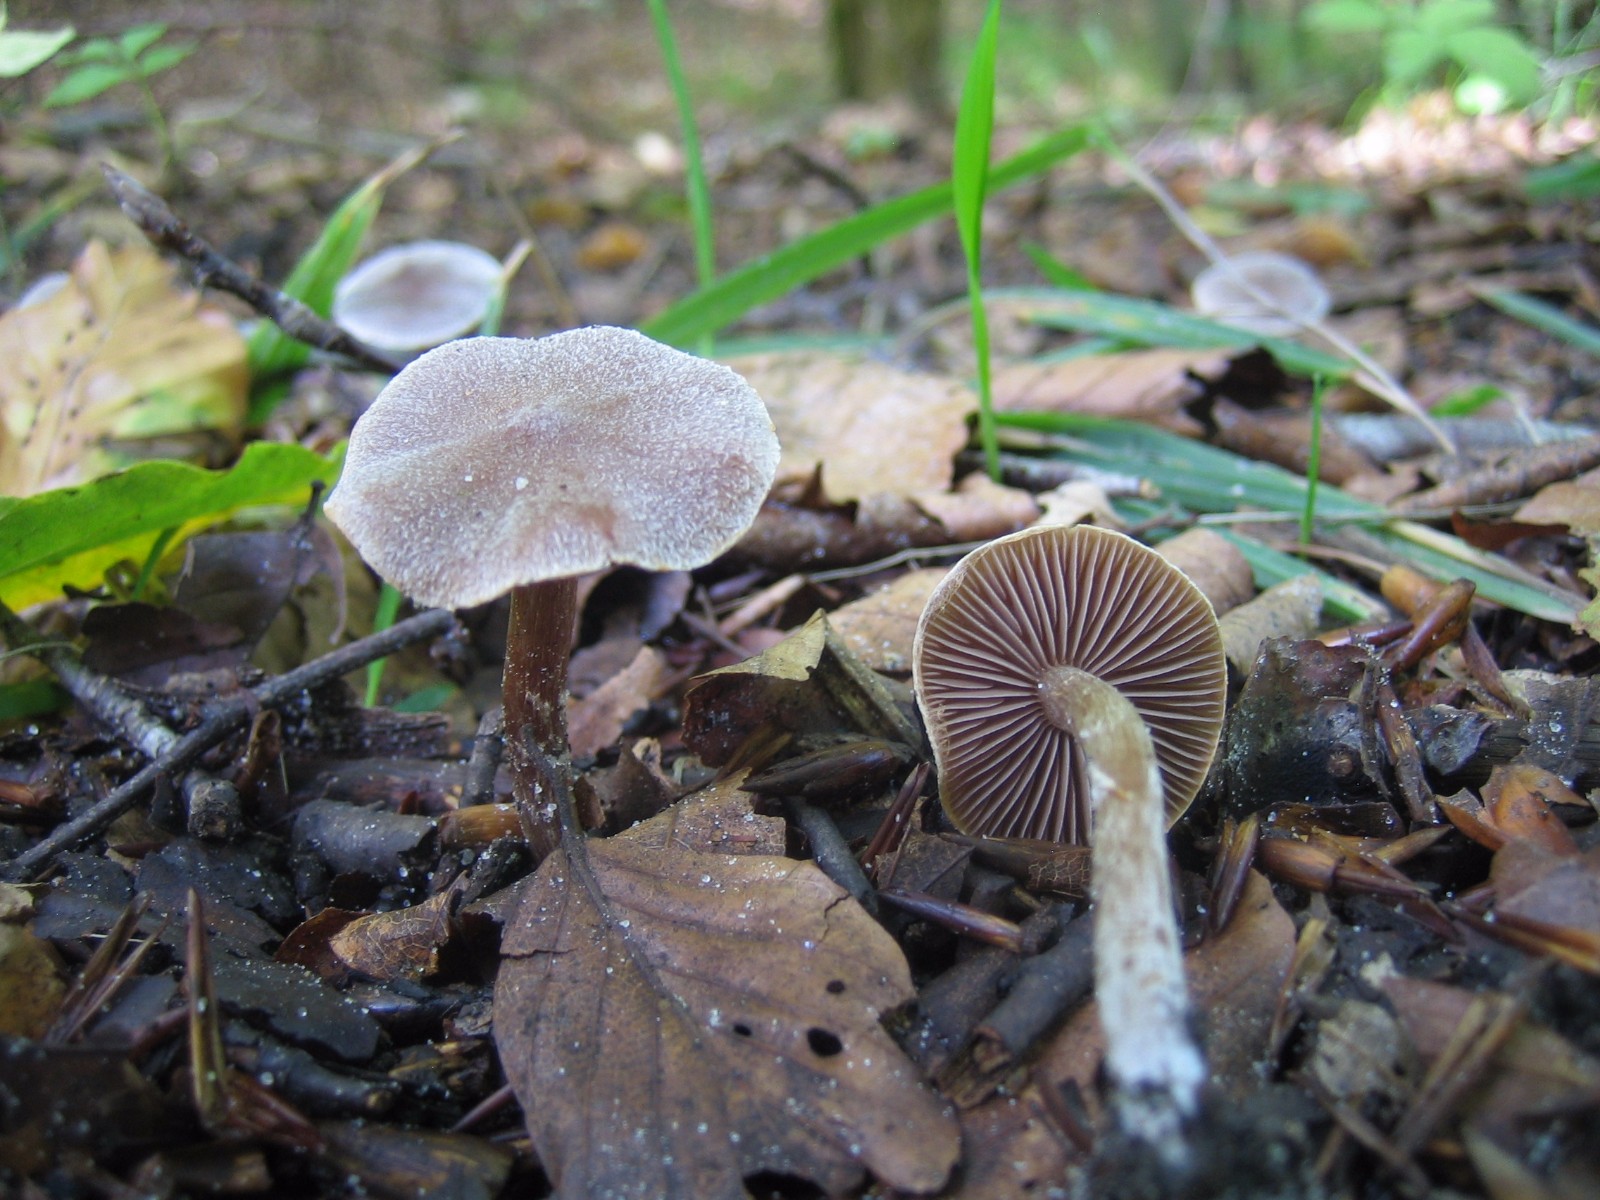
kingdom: Fungi
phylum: Basidiomycota
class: Agaricomycetes
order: Agaricales
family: Cortinariaceae
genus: Cortinarius
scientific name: Cortinarius
